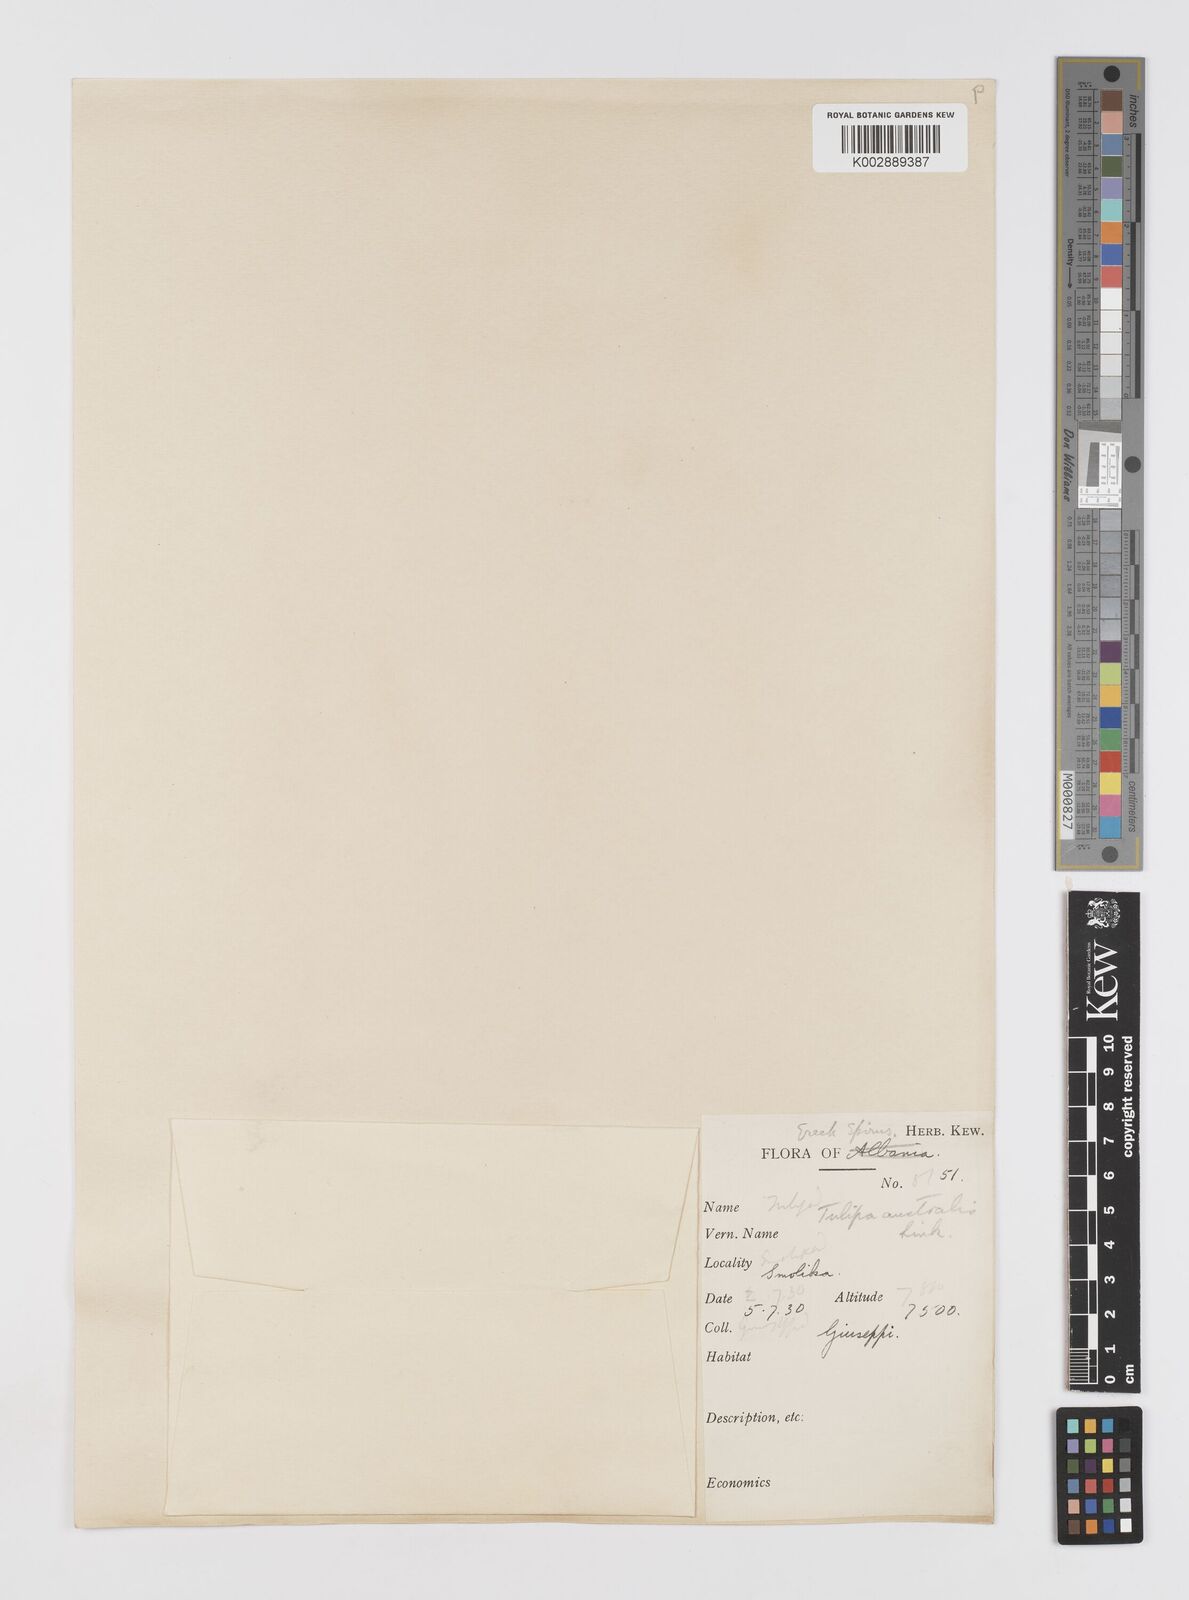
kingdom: Plantae
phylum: Tracheophyta
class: Liliopsida
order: Liliales
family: Liliaceae
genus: Tulipa
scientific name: Tulipa sylvestris
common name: Wild tulip
